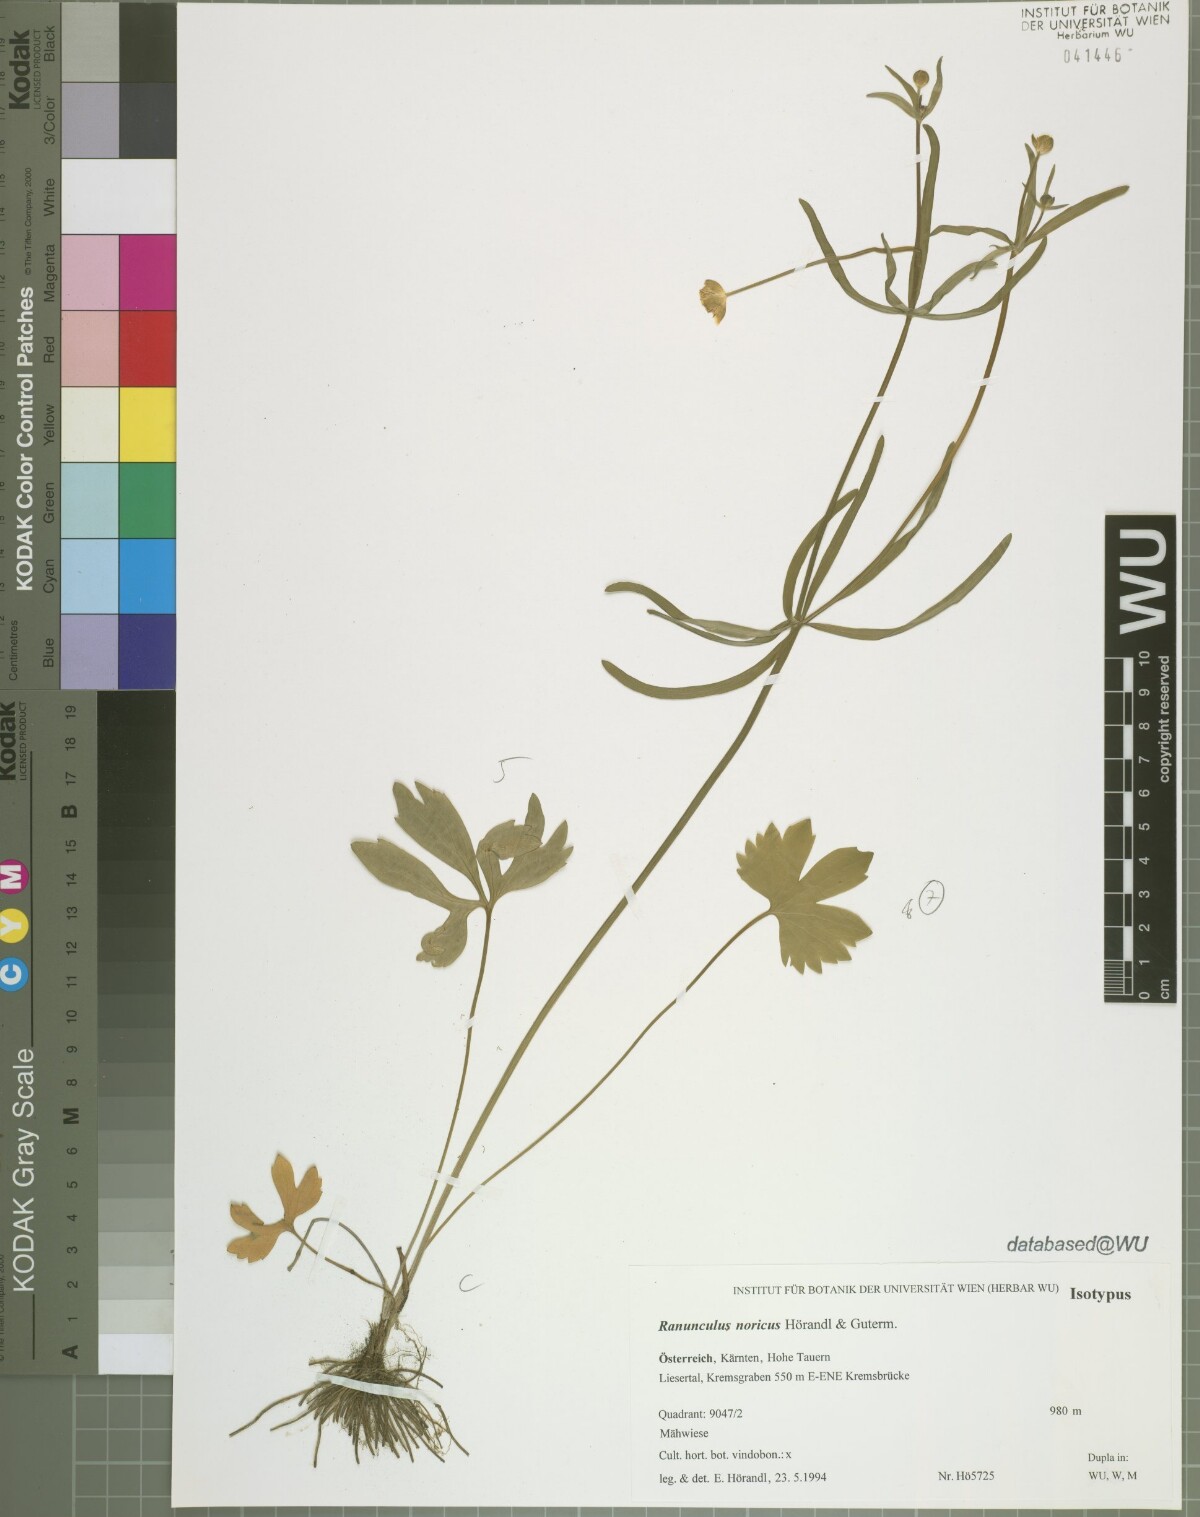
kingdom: Plantae
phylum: Tracheophyta
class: Magnoliopsida
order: Ranunculales
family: Ranunculaceae
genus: Ranunculus
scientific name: Ranunculus noricus
